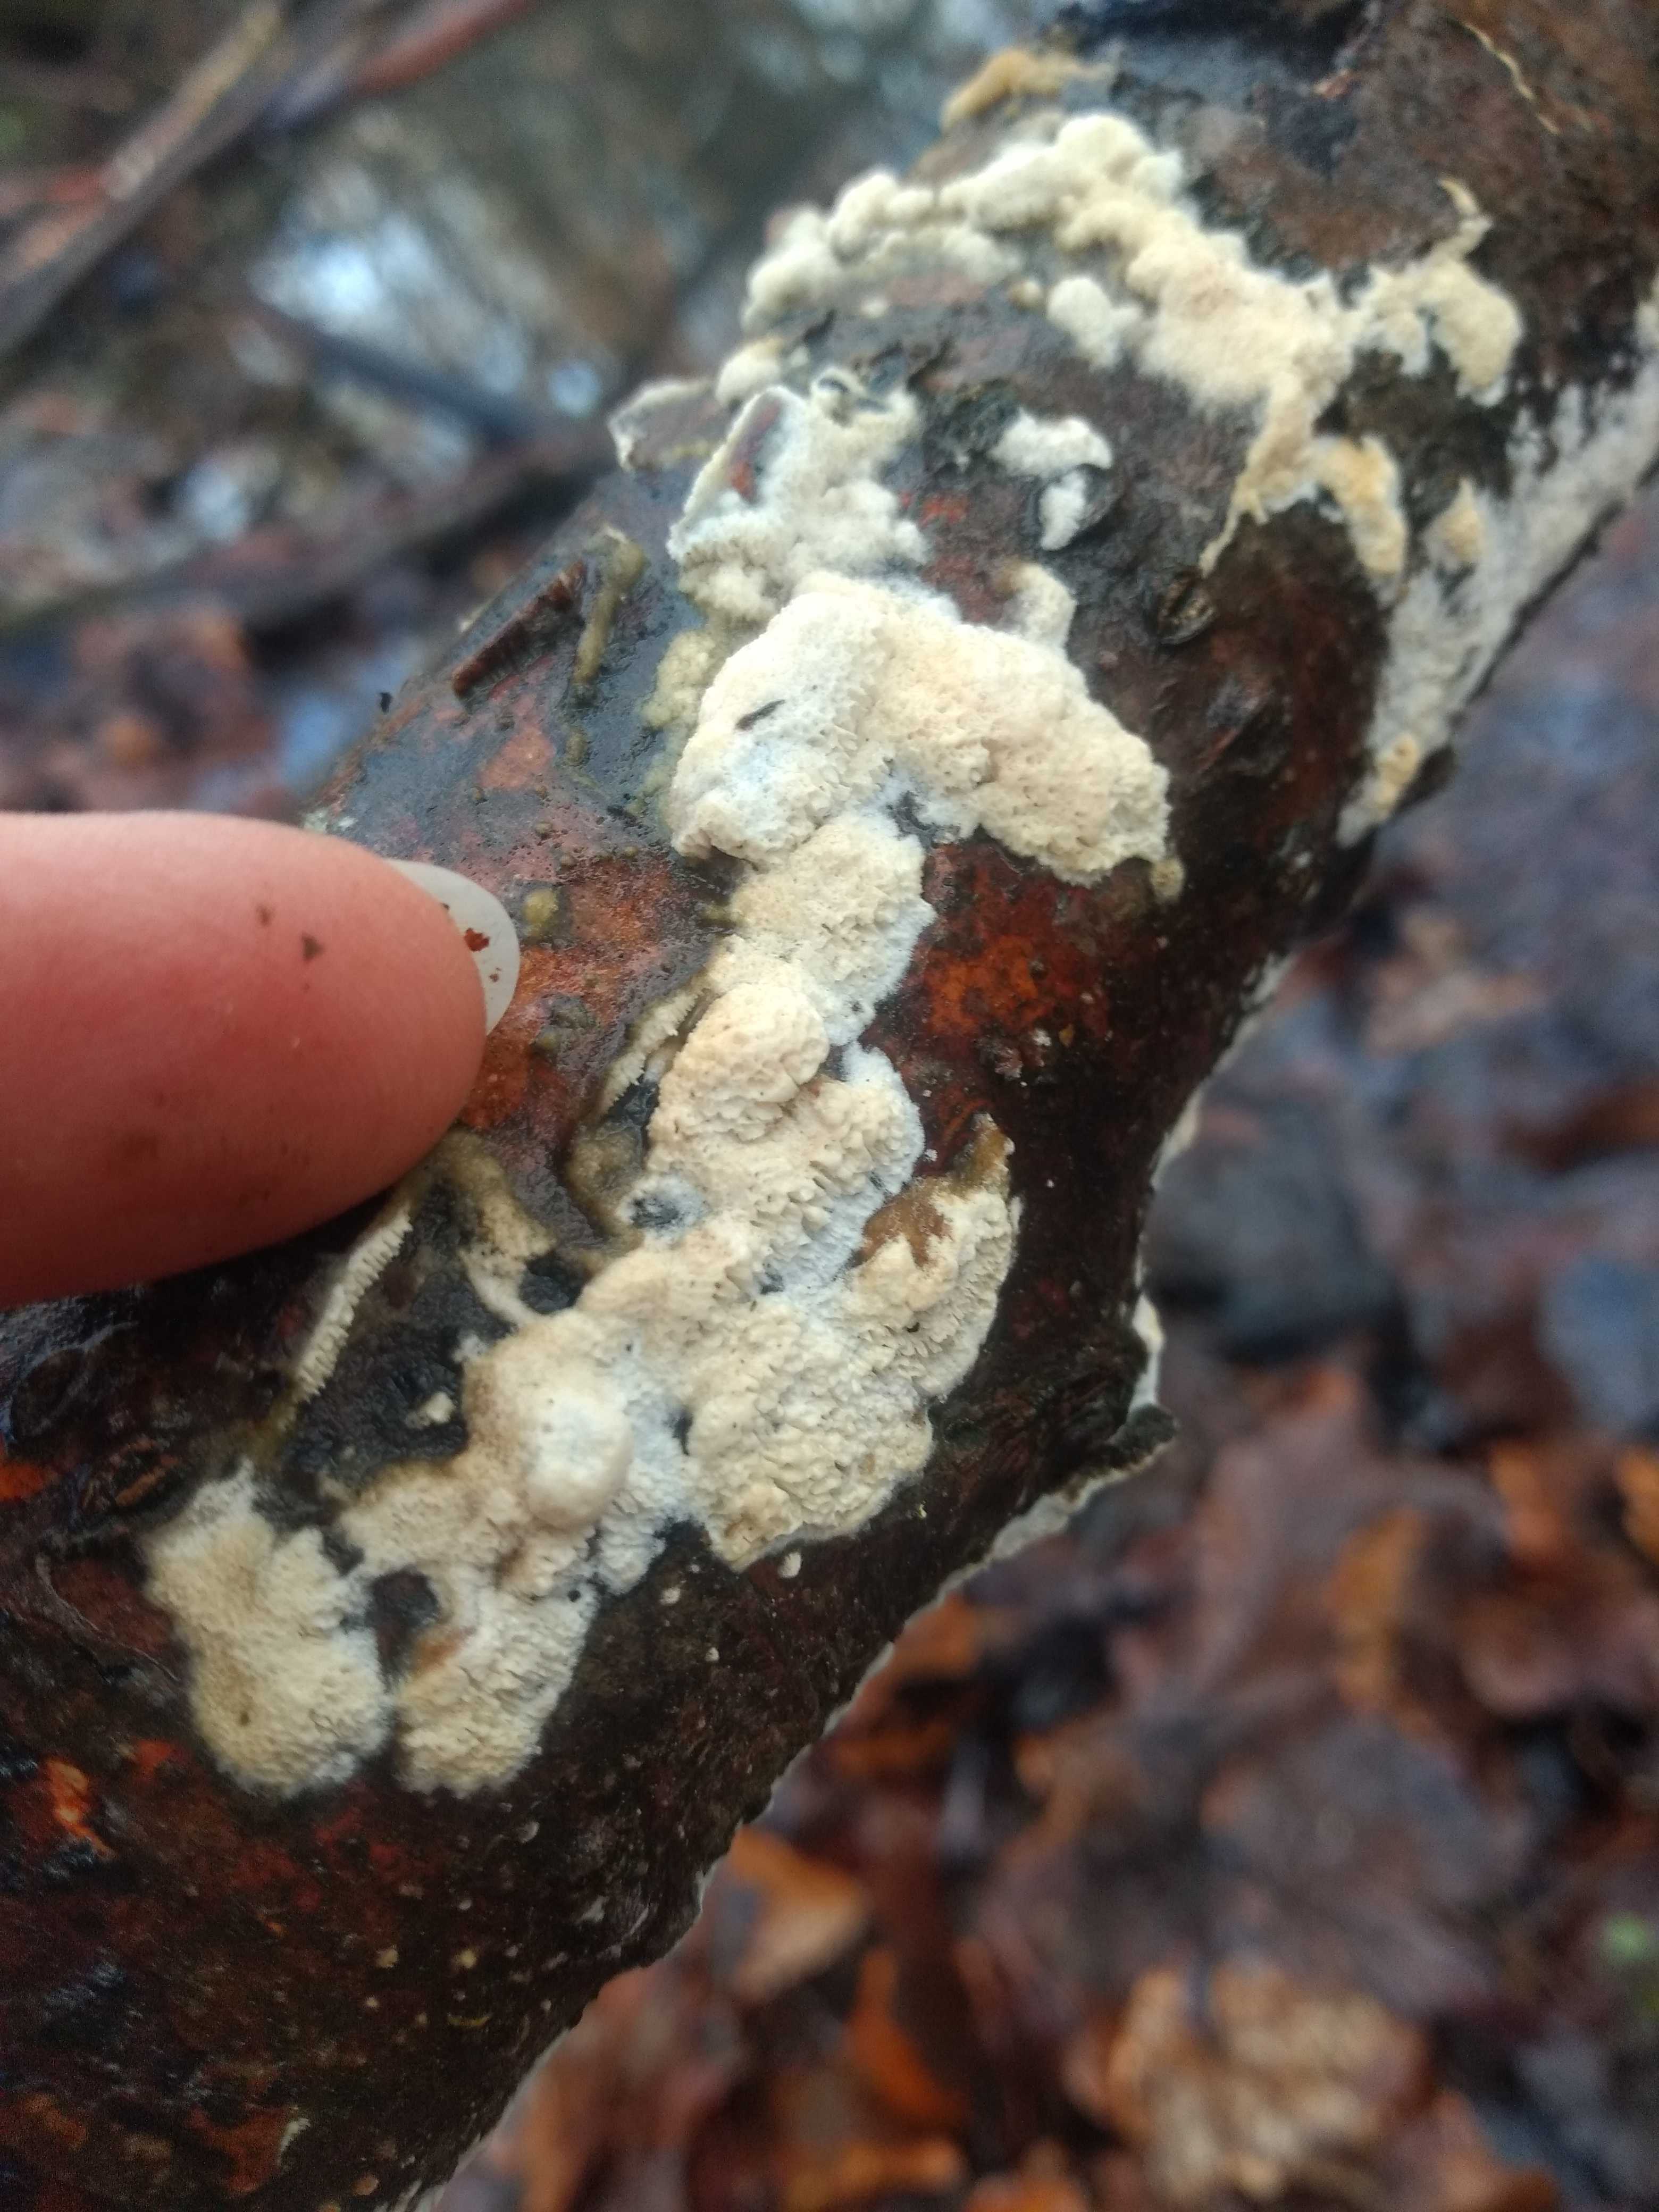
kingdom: Fungi
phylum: Basidiomycota
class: Agaricomycetes
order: Hymenochaetales
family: Schizoporaceae
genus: Xylodon
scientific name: Xylodon
